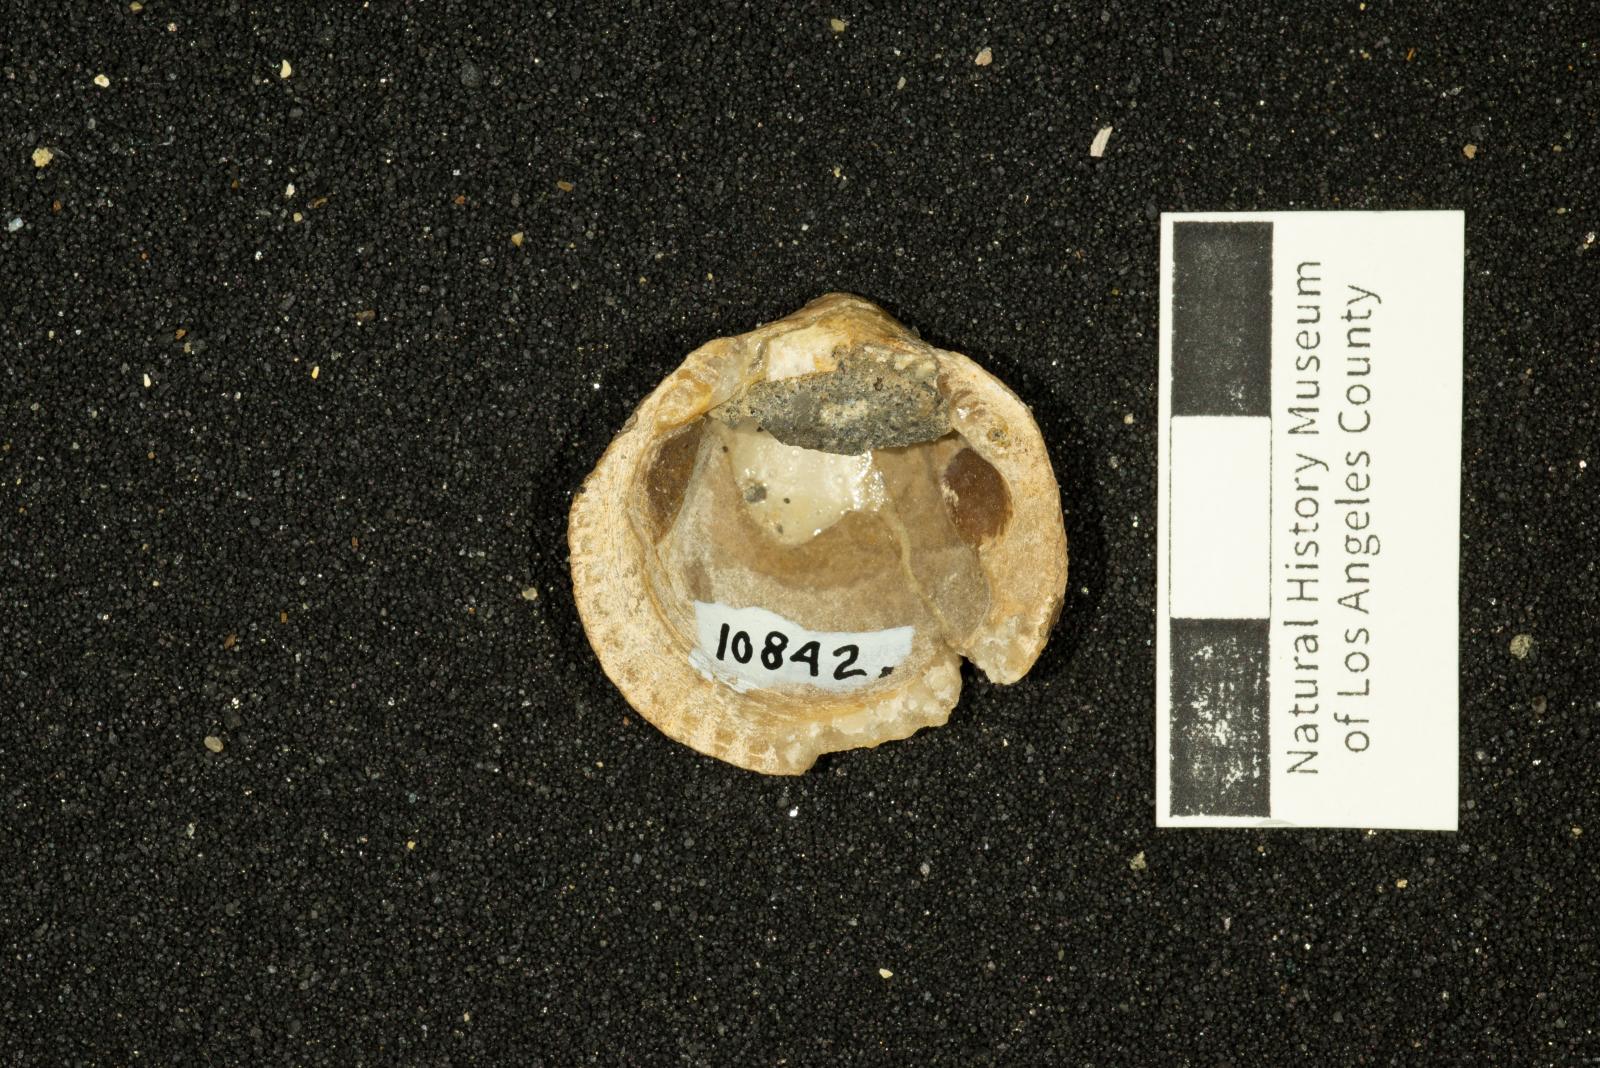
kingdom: Animalia
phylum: Mollusca
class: Bivalvia
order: Arcida
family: Glycymerididae
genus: Glycymerita
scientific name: Glycymerita Axinaea veatchii
